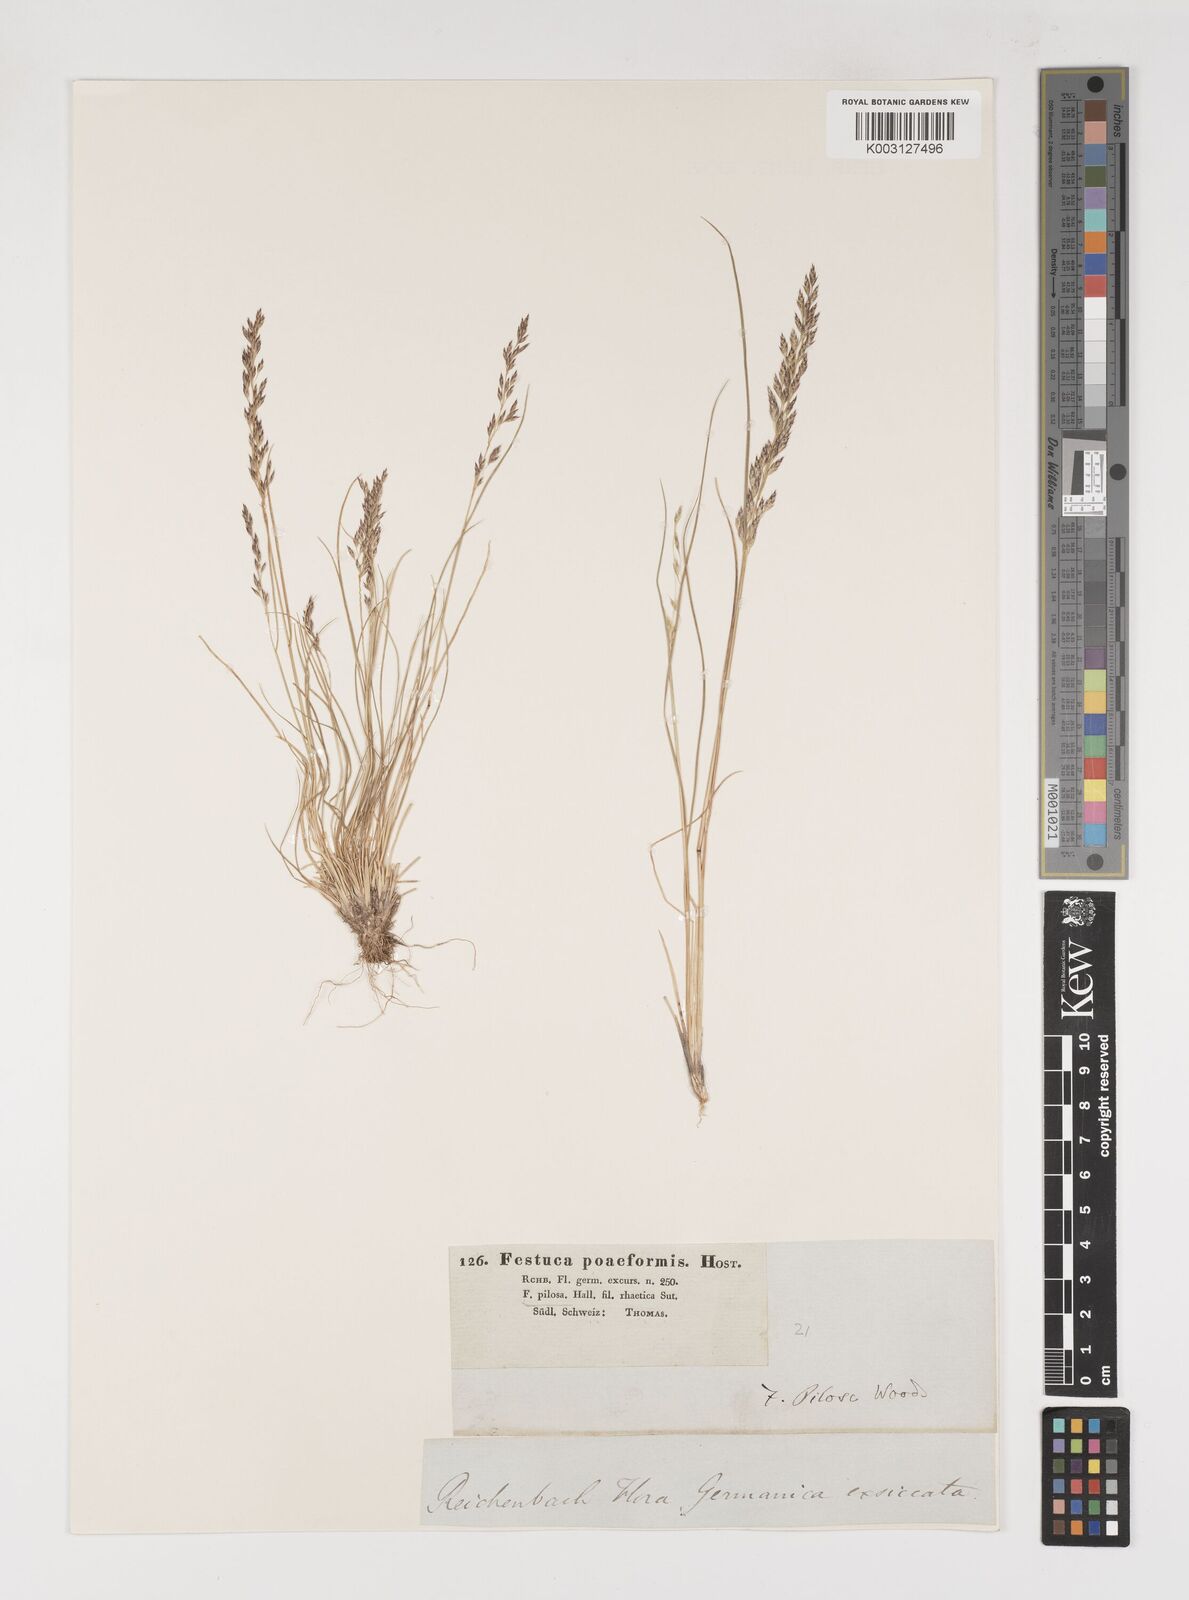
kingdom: Plantae
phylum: Tracheophyta
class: Liliopsida
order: Poales
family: Poaceae
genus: Bellardiochloa
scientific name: Bellardiochloa variegata
